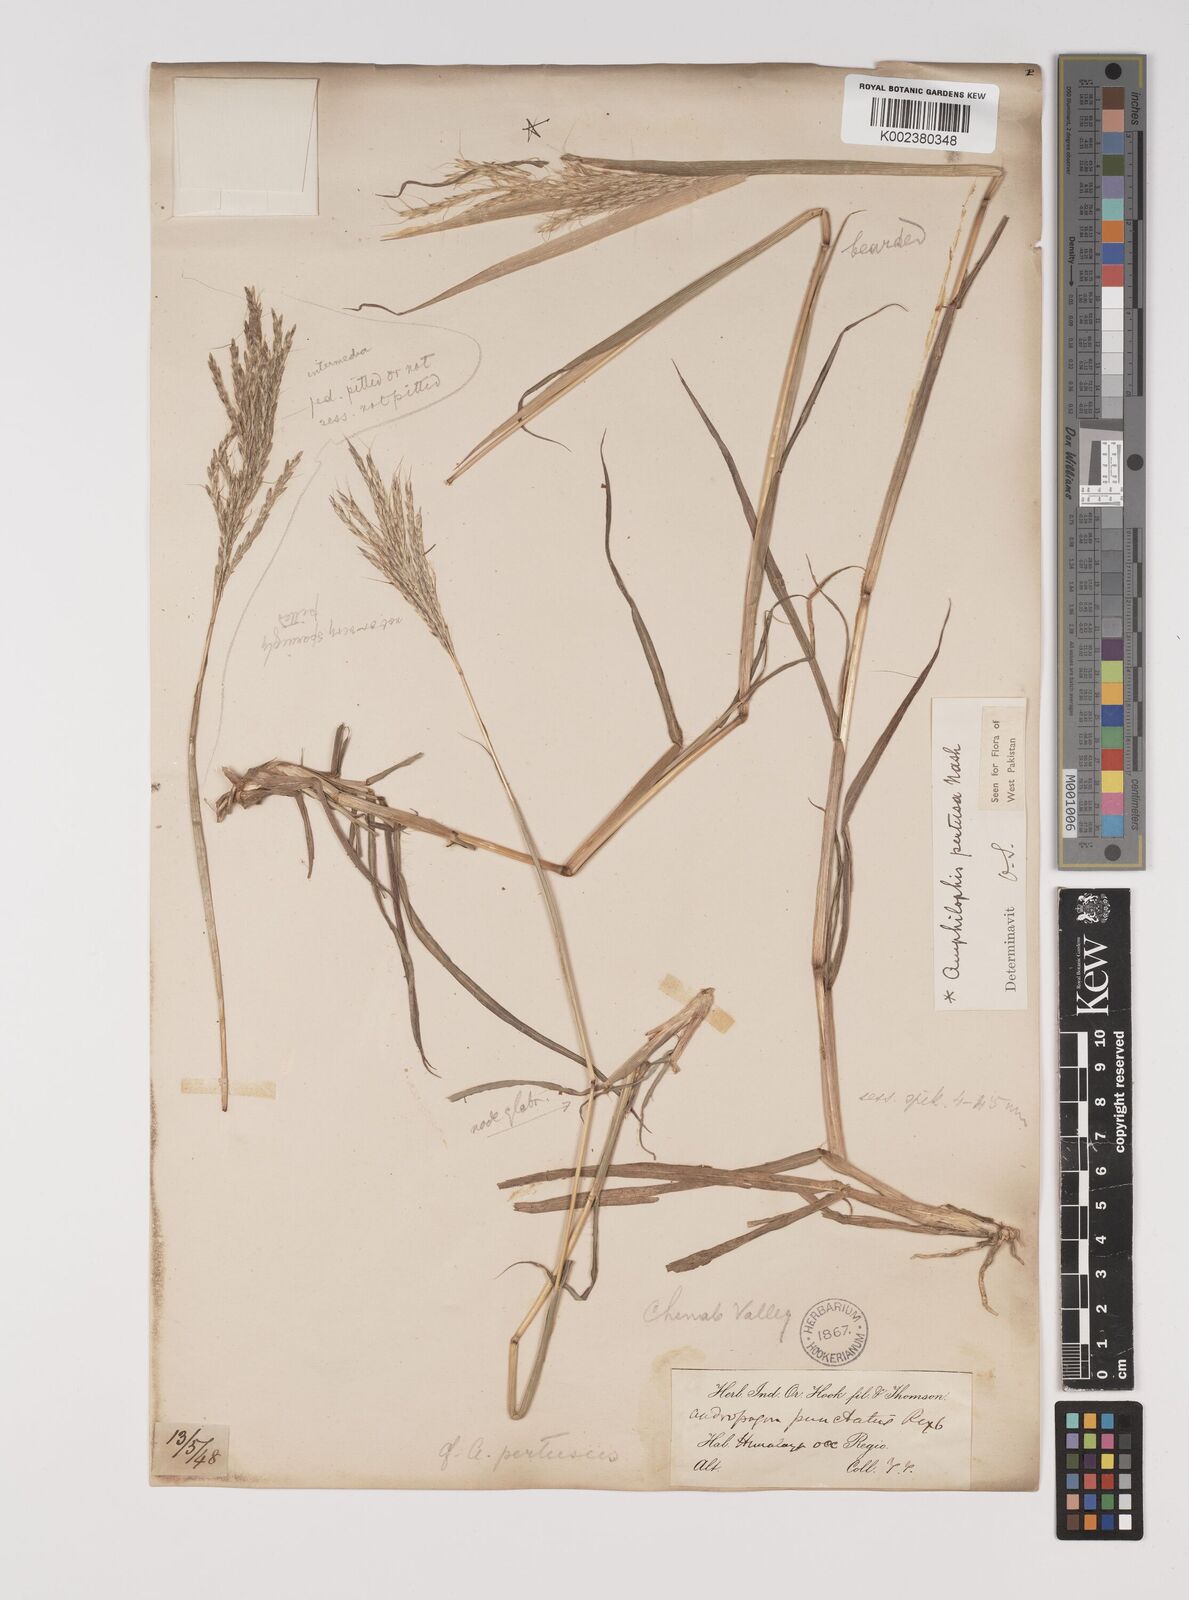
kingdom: Plantae
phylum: Tracheophyta
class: Liliopsida
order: Poales
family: Poaceae
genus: Bothriochloa
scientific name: Bothriochloa pertusa
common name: Pitted beardgrass
